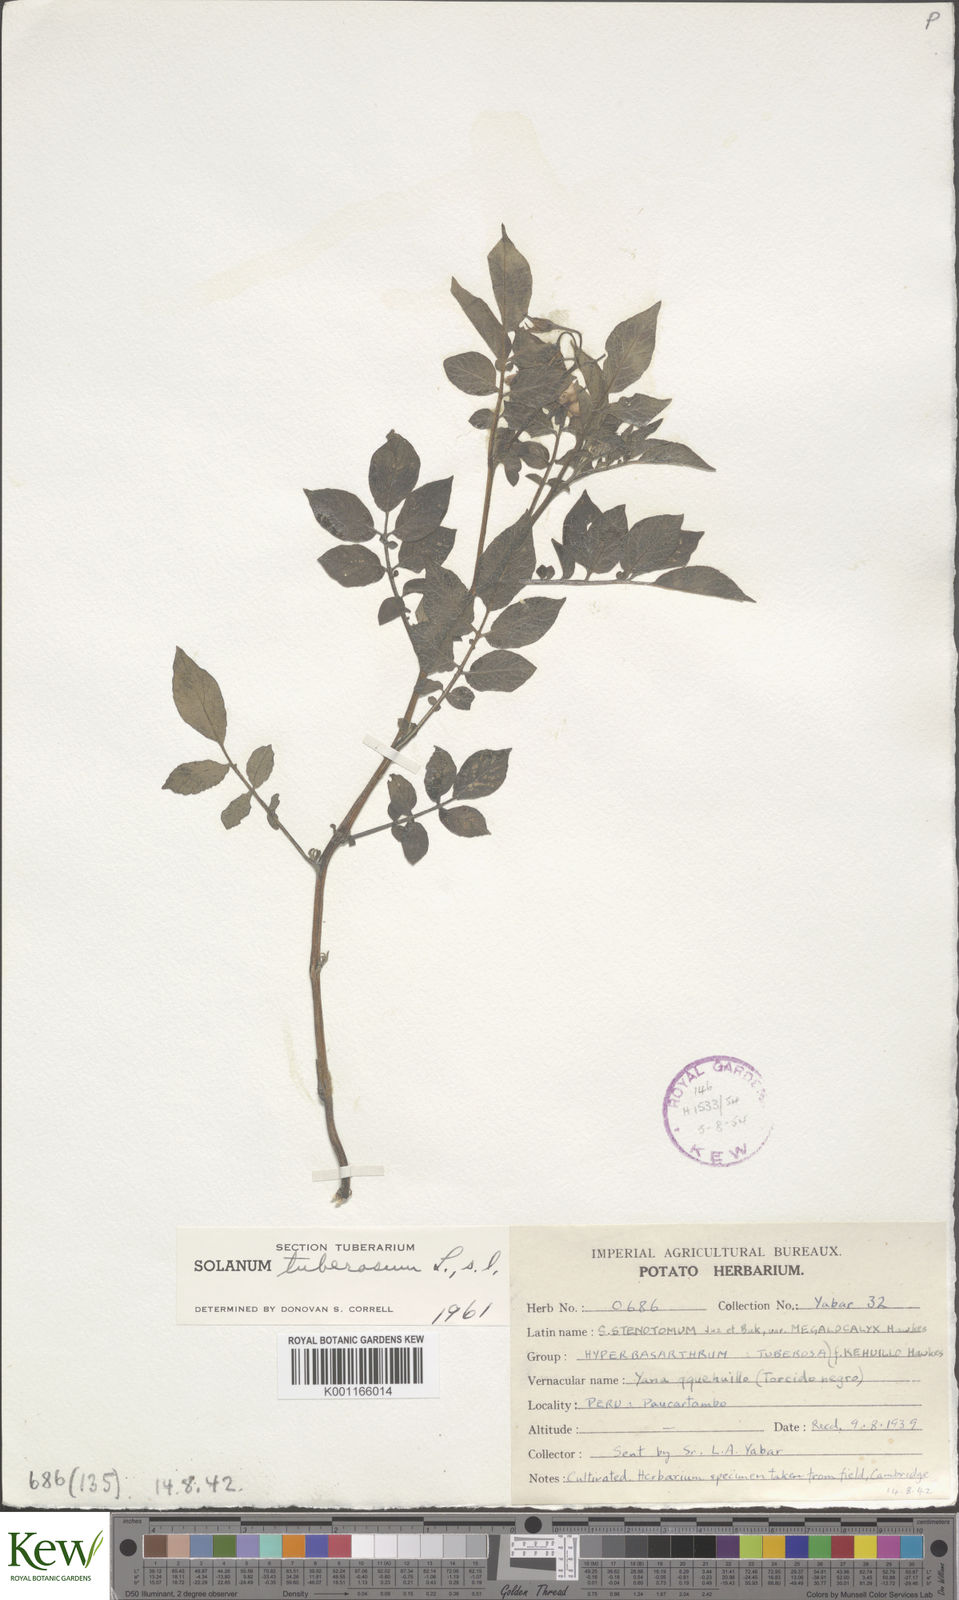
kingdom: Plantae
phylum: Tracheophyta
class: Magnoliopsida
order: Solanales
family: Solanaceae
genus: Solanum
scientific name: Solanum tuberosum
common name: Potato
